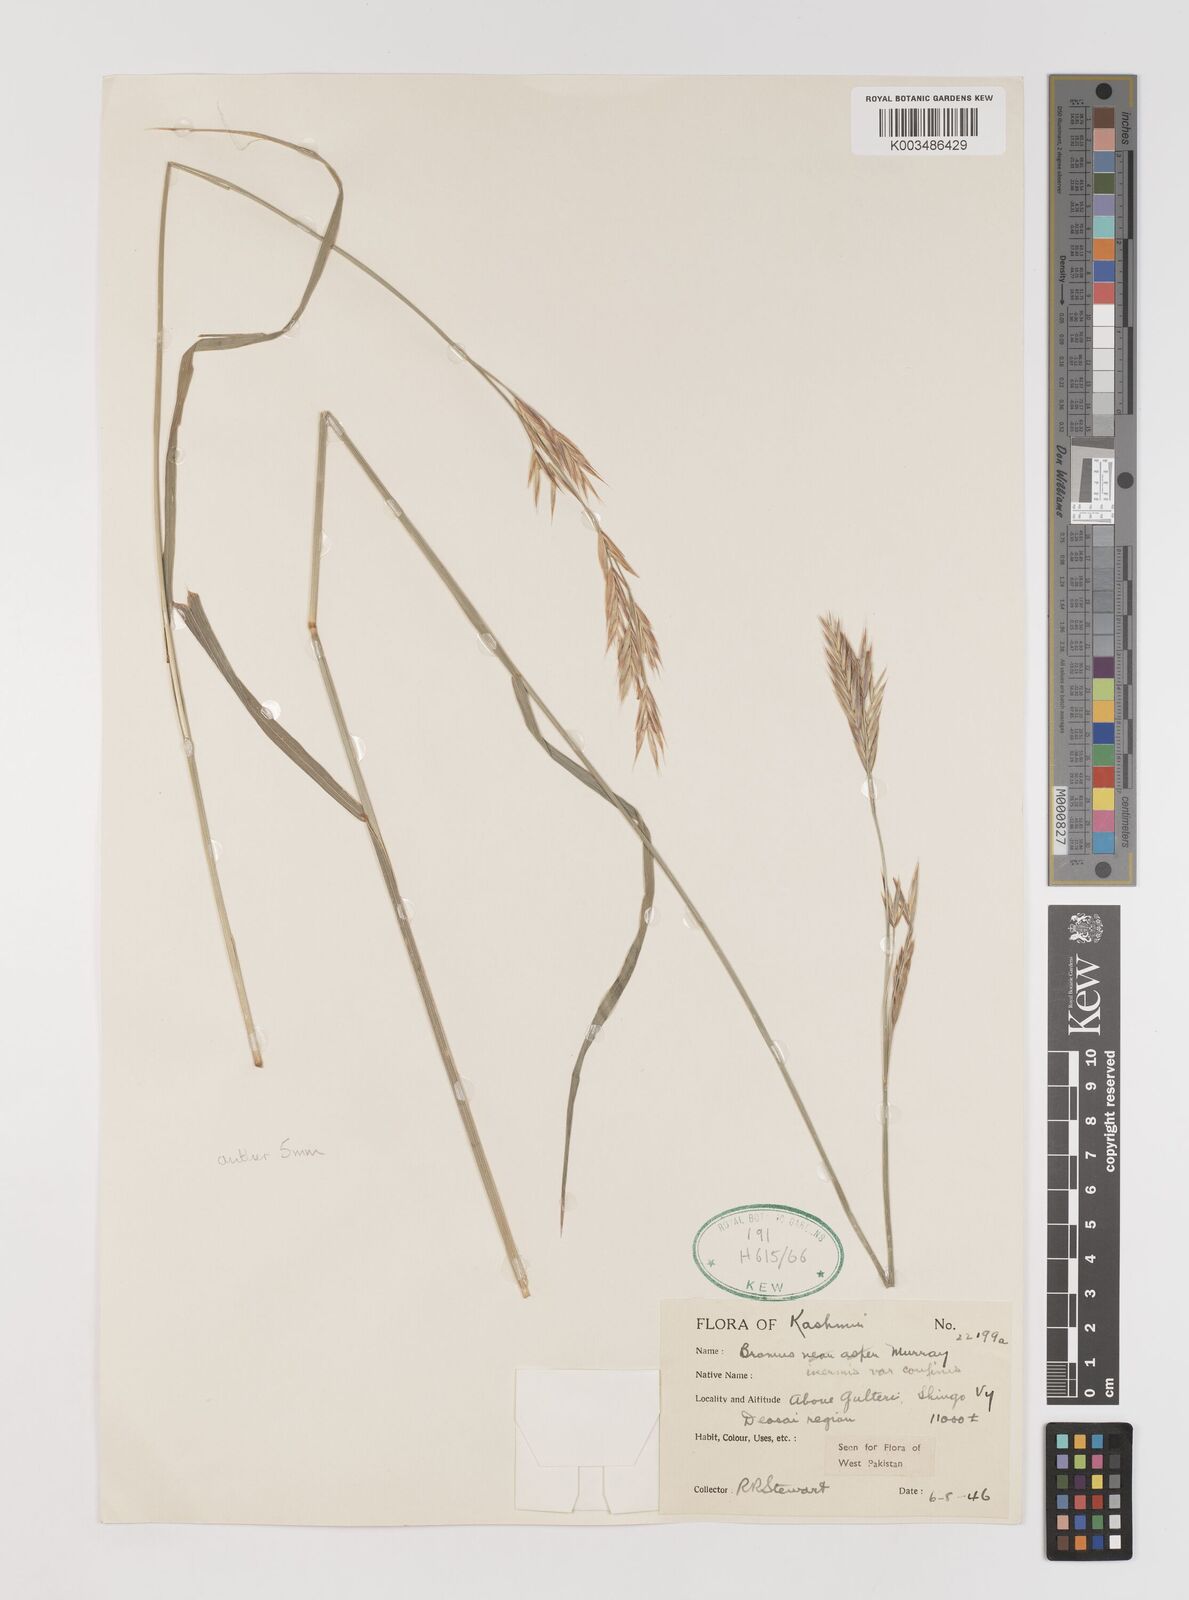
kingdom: Plantae
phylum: Tracheophyta
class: Liliopsida
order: Poales
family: Poaceae
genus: Bromus
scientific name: Bromus confinis
